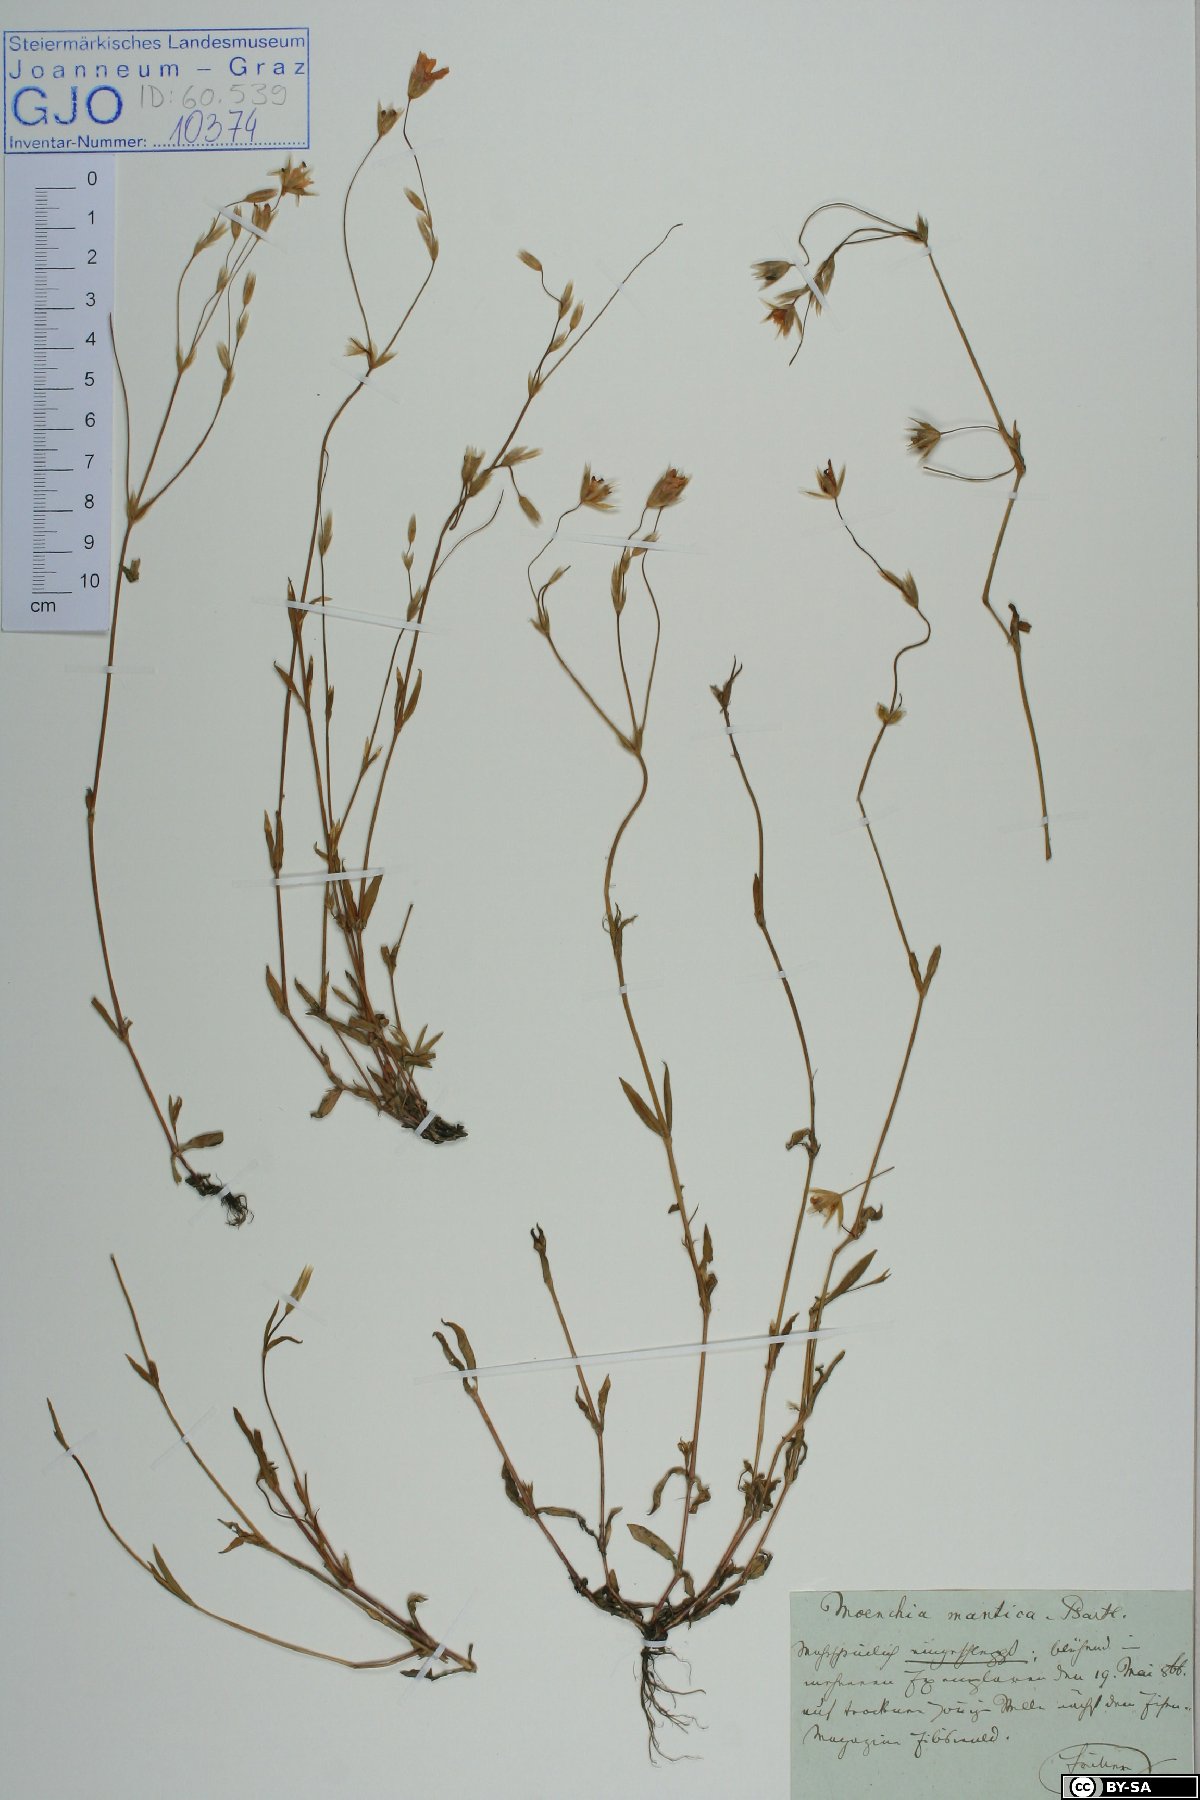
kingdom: Plantae
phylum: Tracheophyta
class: Magnoliopsida
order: Caryophyllales
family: Caryophyllaceae
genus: Moenchia
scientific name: Moenchia mantica
